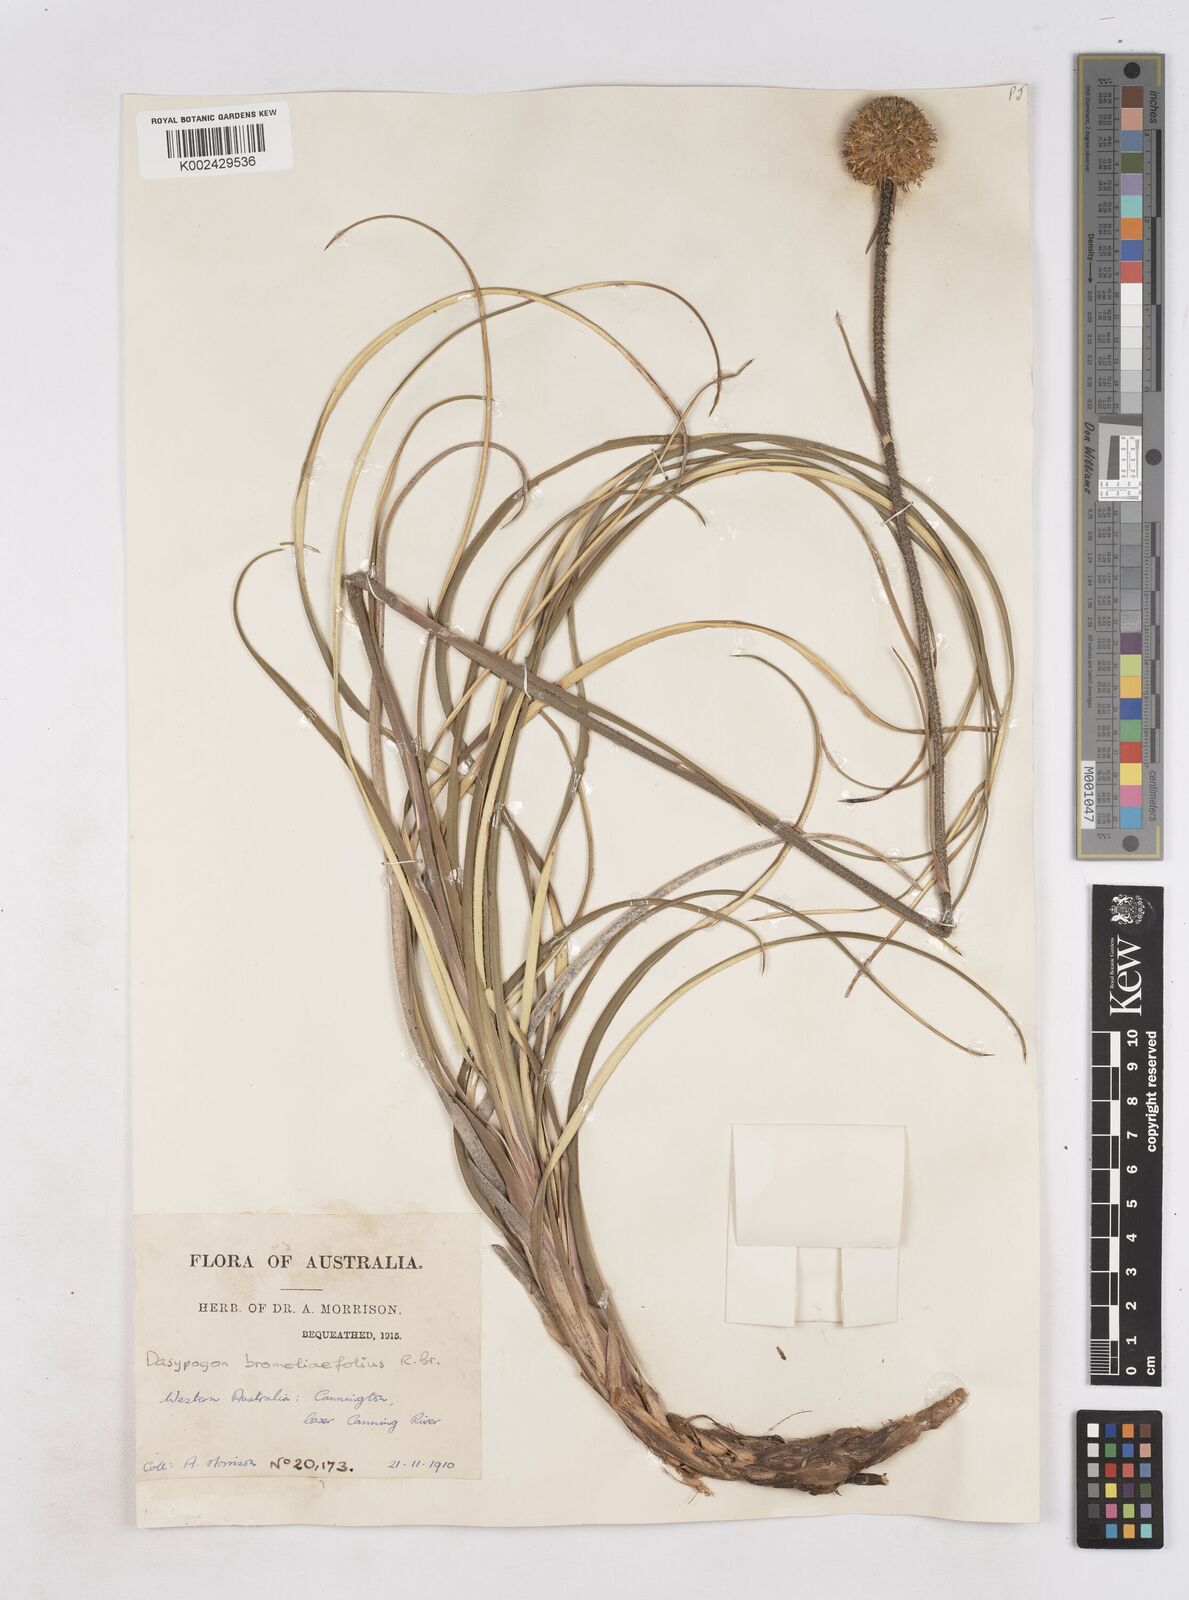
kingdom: Plantae
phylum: Tracheophyta
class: Liliopsida
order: Arecales
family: Dasypogonaceae
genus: Dasypogon
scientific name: Dasypogon bromeliifolius
